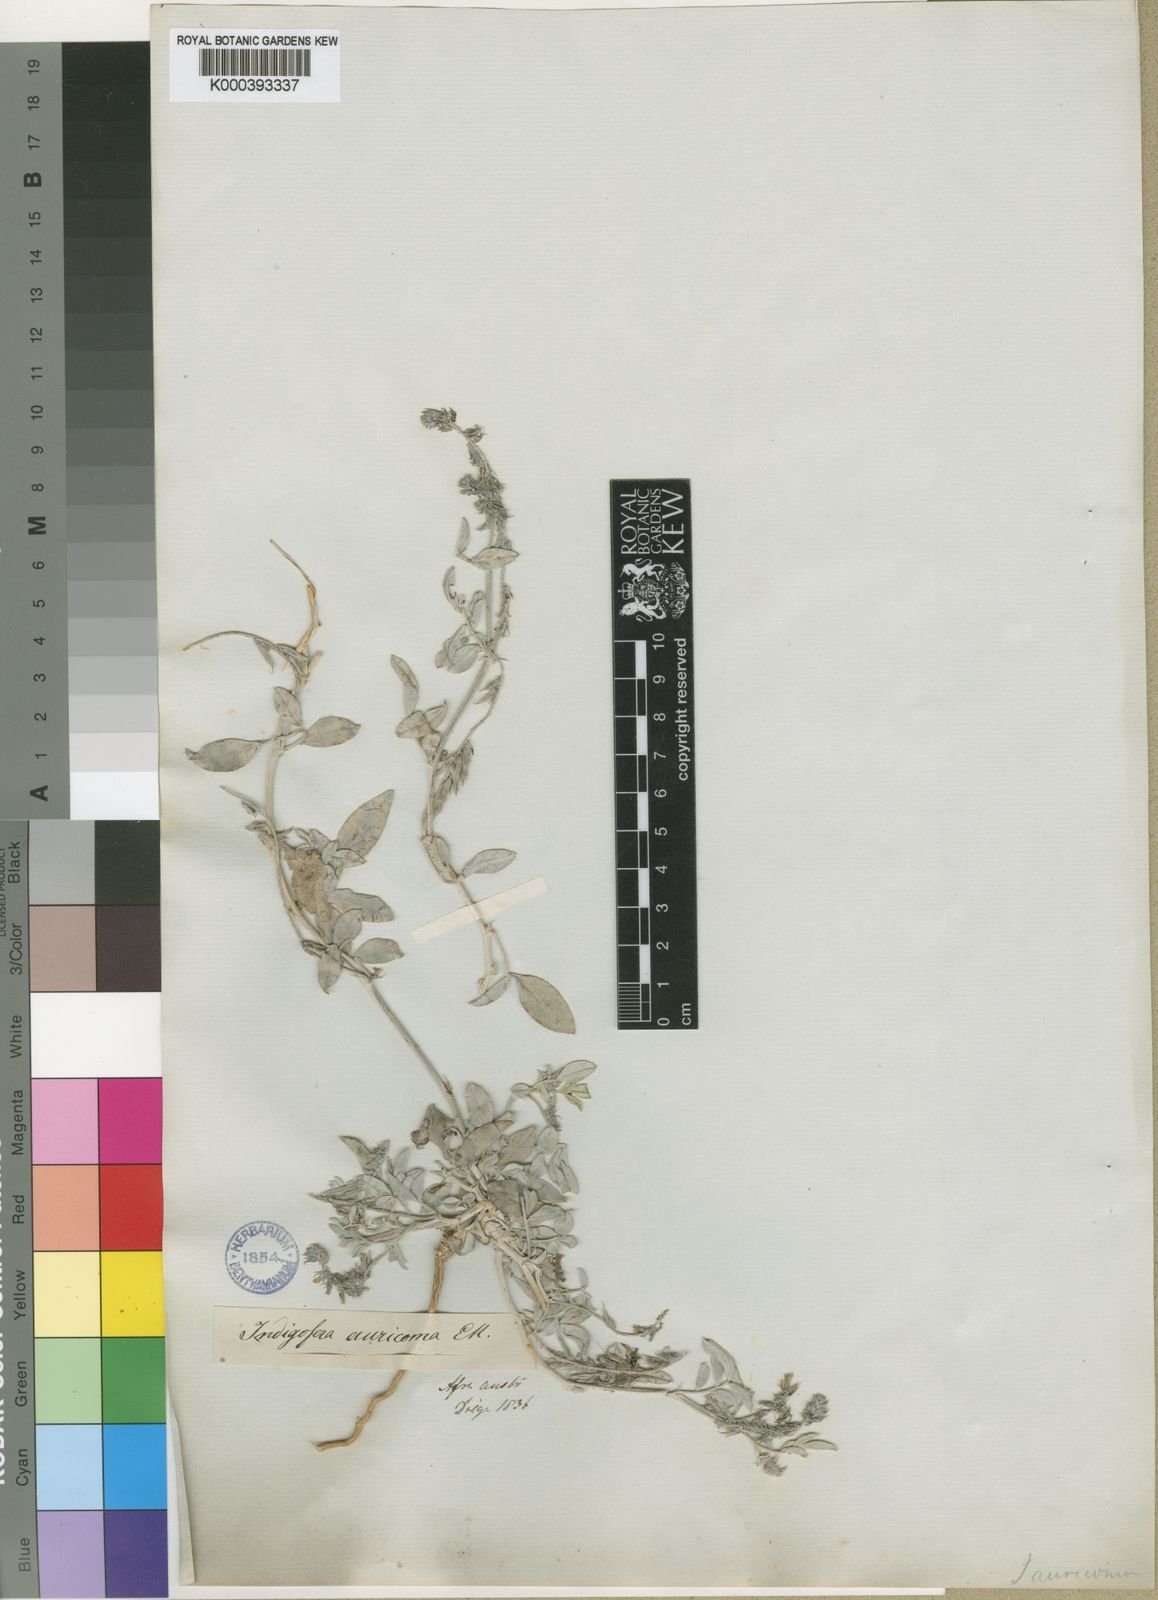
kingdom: Plantae
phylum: Tracheophyta
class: Magnoliopsida
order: Fabales
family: Fabaceae
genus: Indigofera
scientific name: Indigofera auricoma
